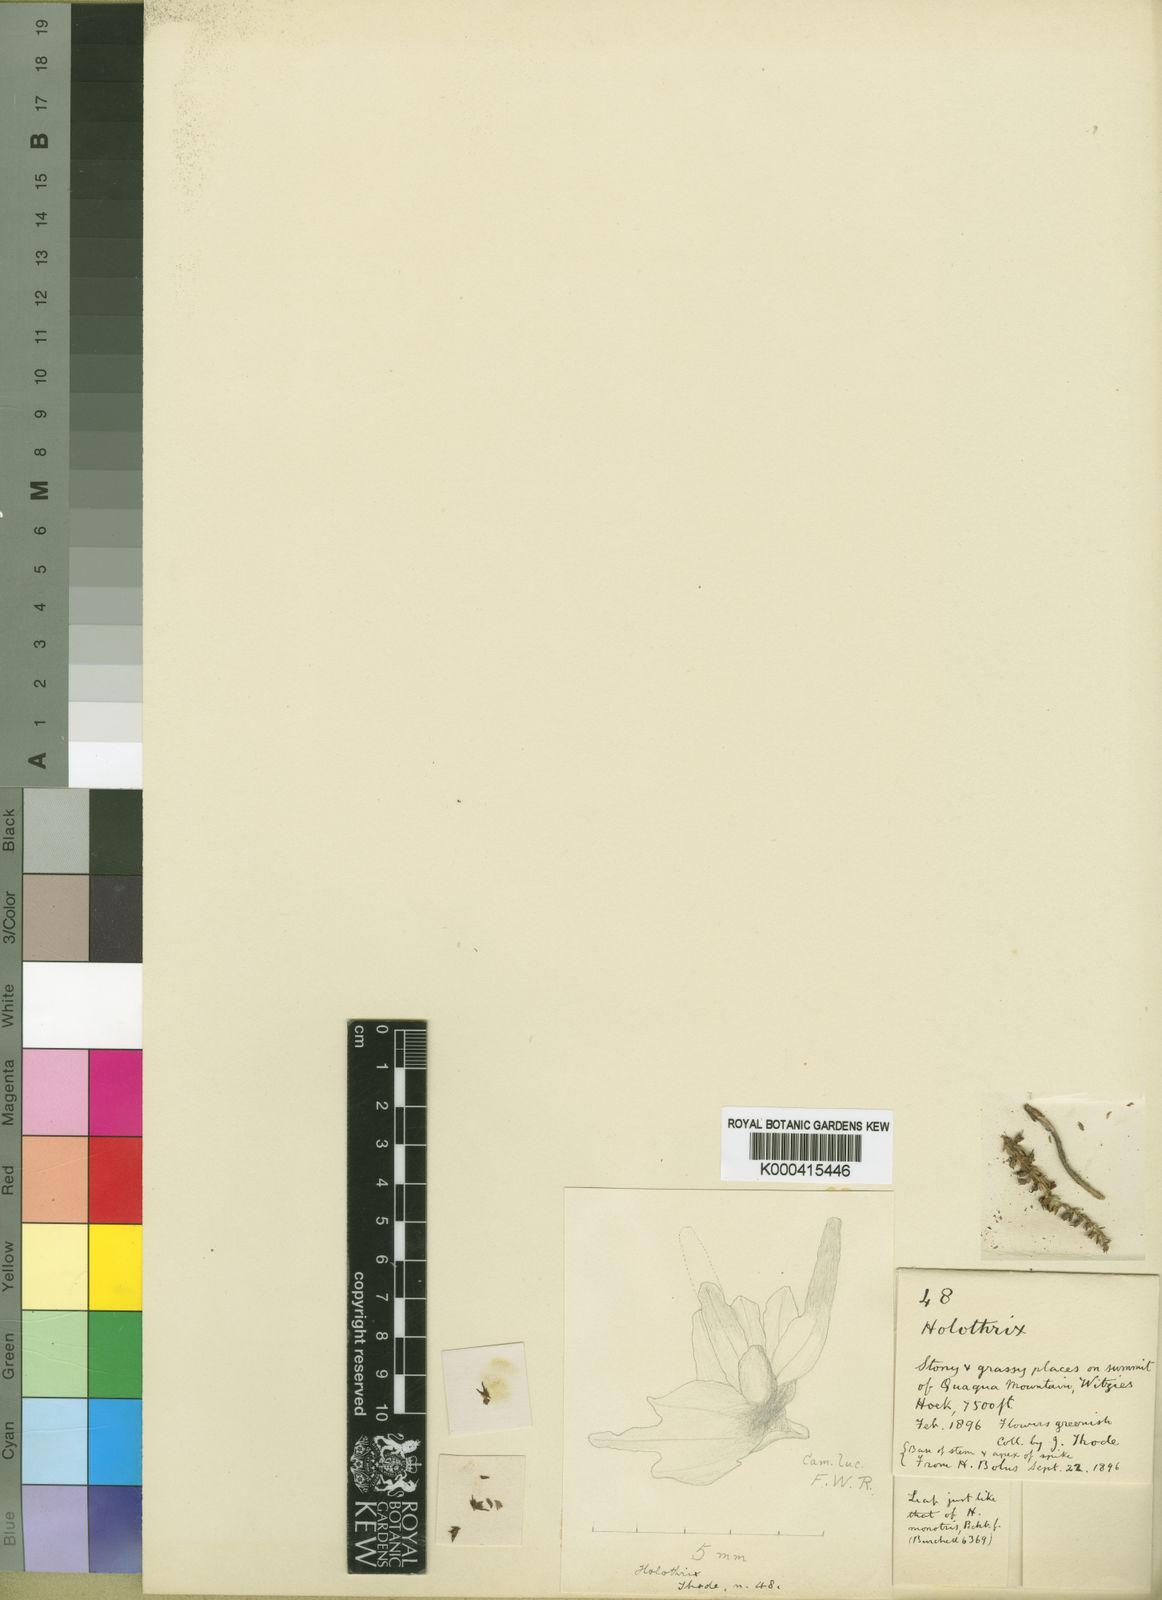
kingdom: Plantae
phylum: Tracheophyta
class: Liliopsida
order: Asparagales
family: Orchidaceae
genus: Holothrix
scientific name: Holothrix thodei
